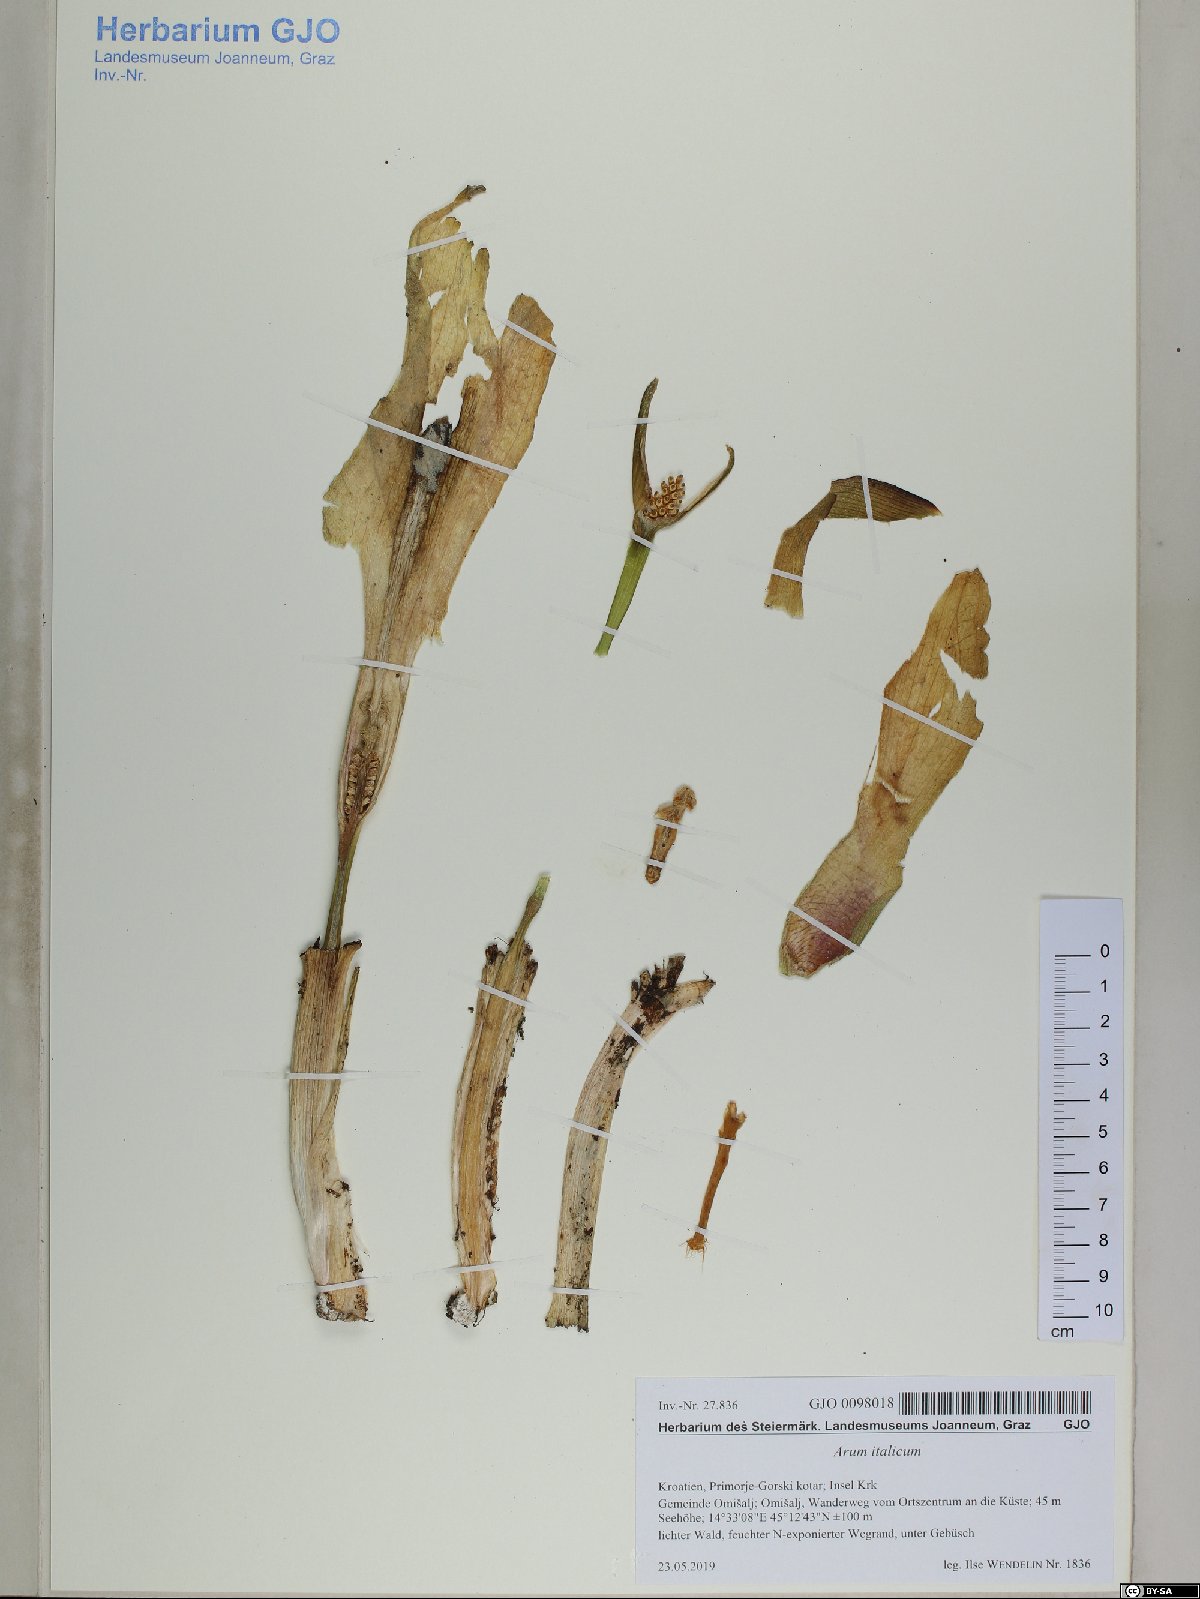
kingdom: Plantae
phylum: Tracheophyta
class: Liliopsida
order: Alismatales
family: Araceae
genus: Arum
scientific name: Arum italicum
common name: Italian lords-and-ladies
